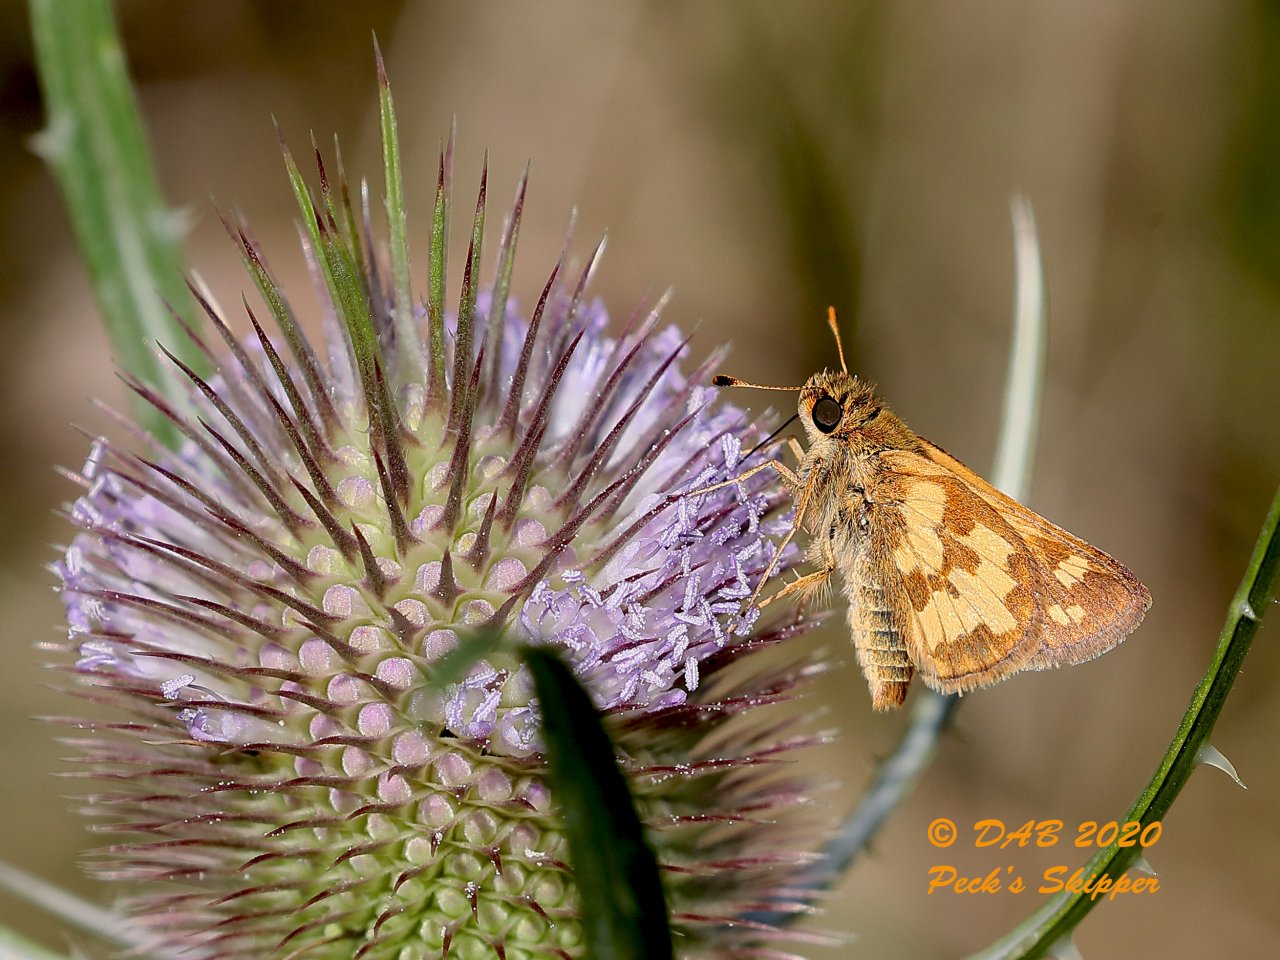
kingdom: Animalia
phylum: Arthropoda
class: Insecta
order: Lepidoptera
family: Hesperiidae
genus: Polites
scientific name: Polites coras
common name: Peck's Skipper
